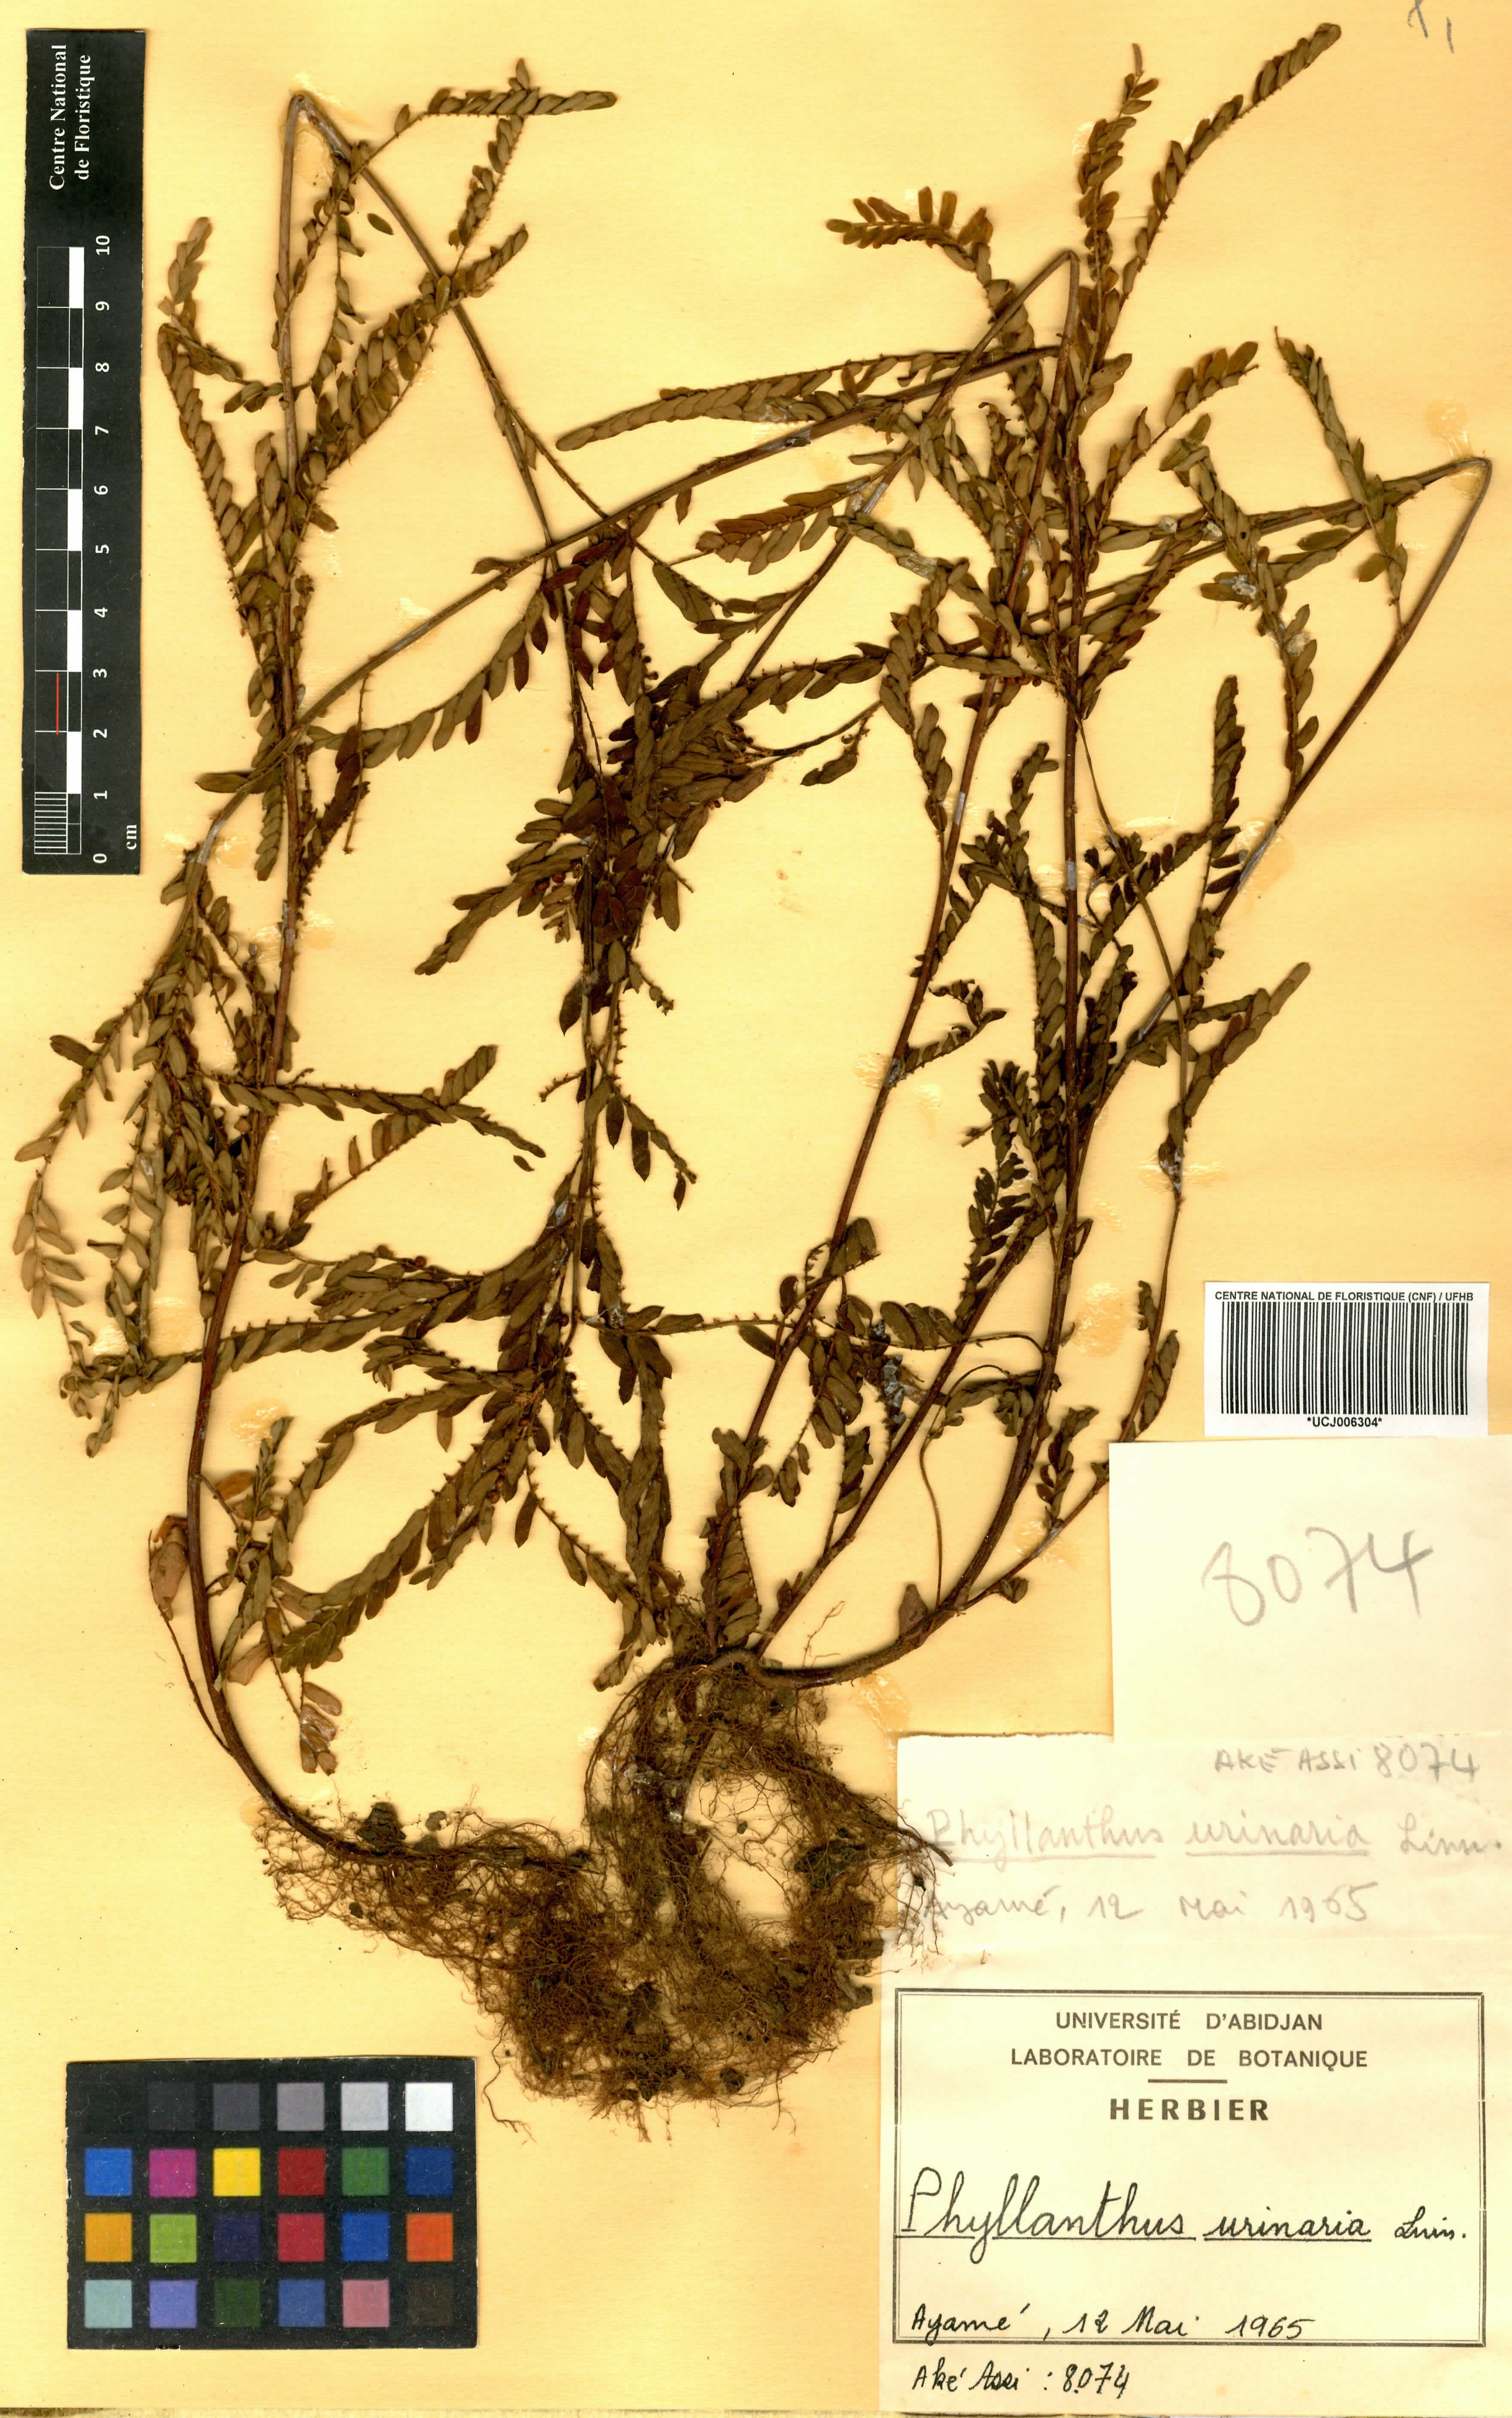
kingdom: Plantae
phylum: Tracheophyta
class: Magnoliopsida
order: Malpighiales
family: Phyllanthaceae
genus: Phyllanthus
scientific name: Phyllanthus urinaria
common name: Chamber bitter
